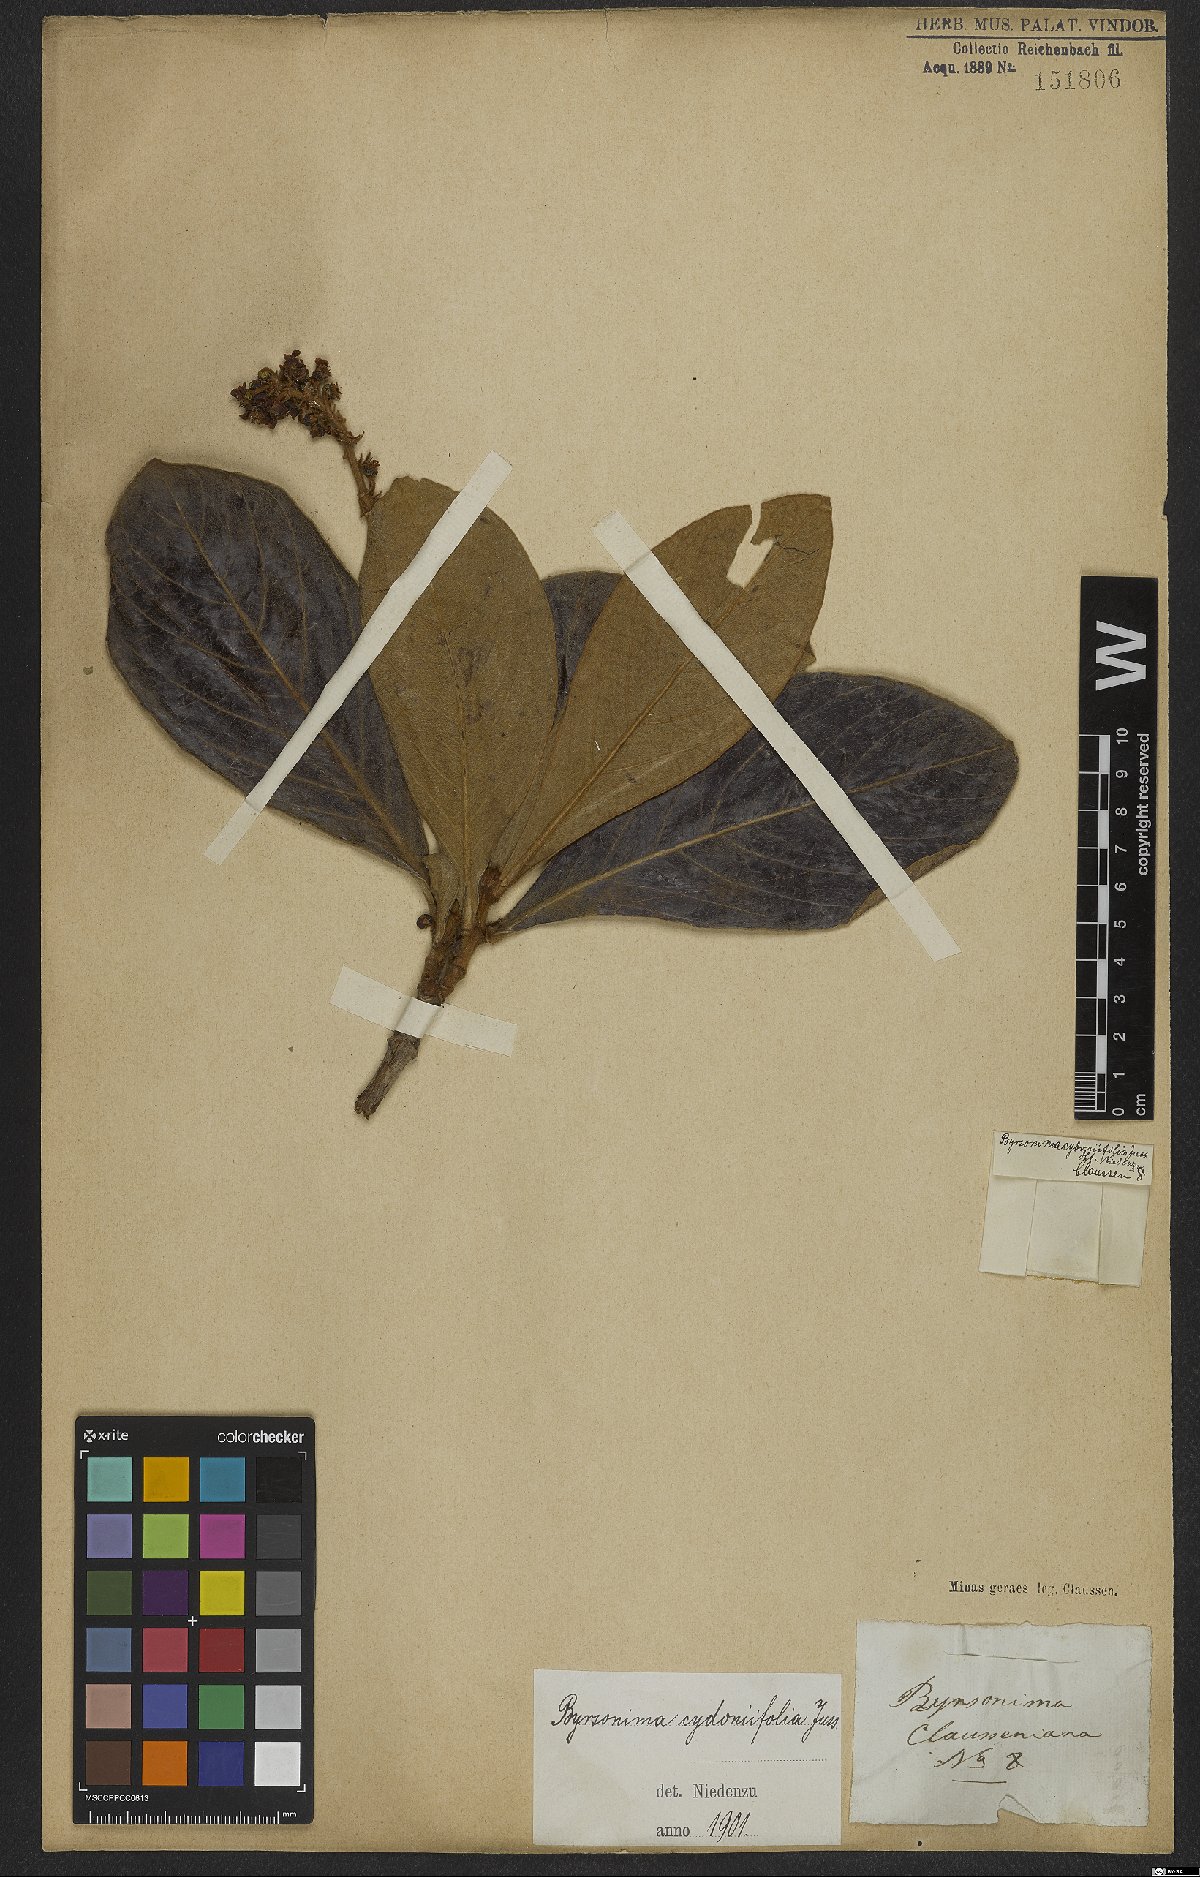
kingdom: Plantae
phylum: Tracheophyta
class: Magnoliopsida
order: Malpighiales
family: Malpighiaceae
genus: Byrsonima
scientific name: Byrsonima cydoniifolia
